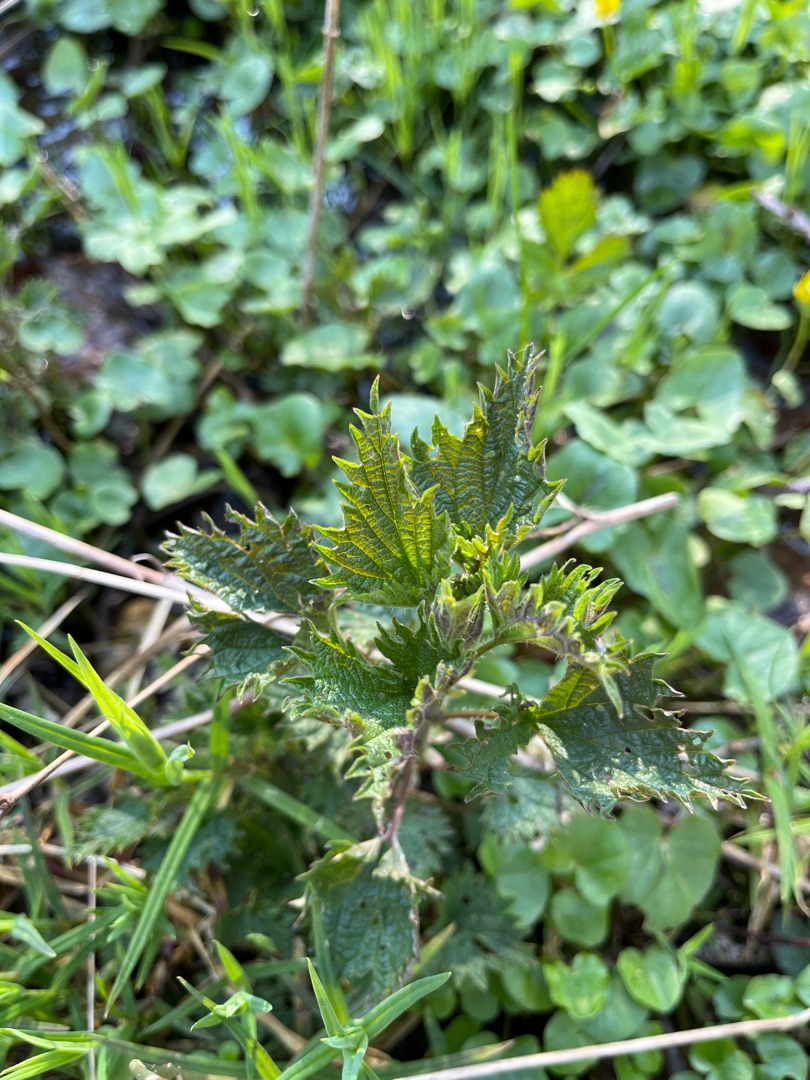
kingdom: Plantae
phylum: Tracheophyta
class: Magnoliopsida
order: Rosales
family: Urticaceae
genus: Urtica
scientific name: Urtica dioica
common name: Stor nælde
